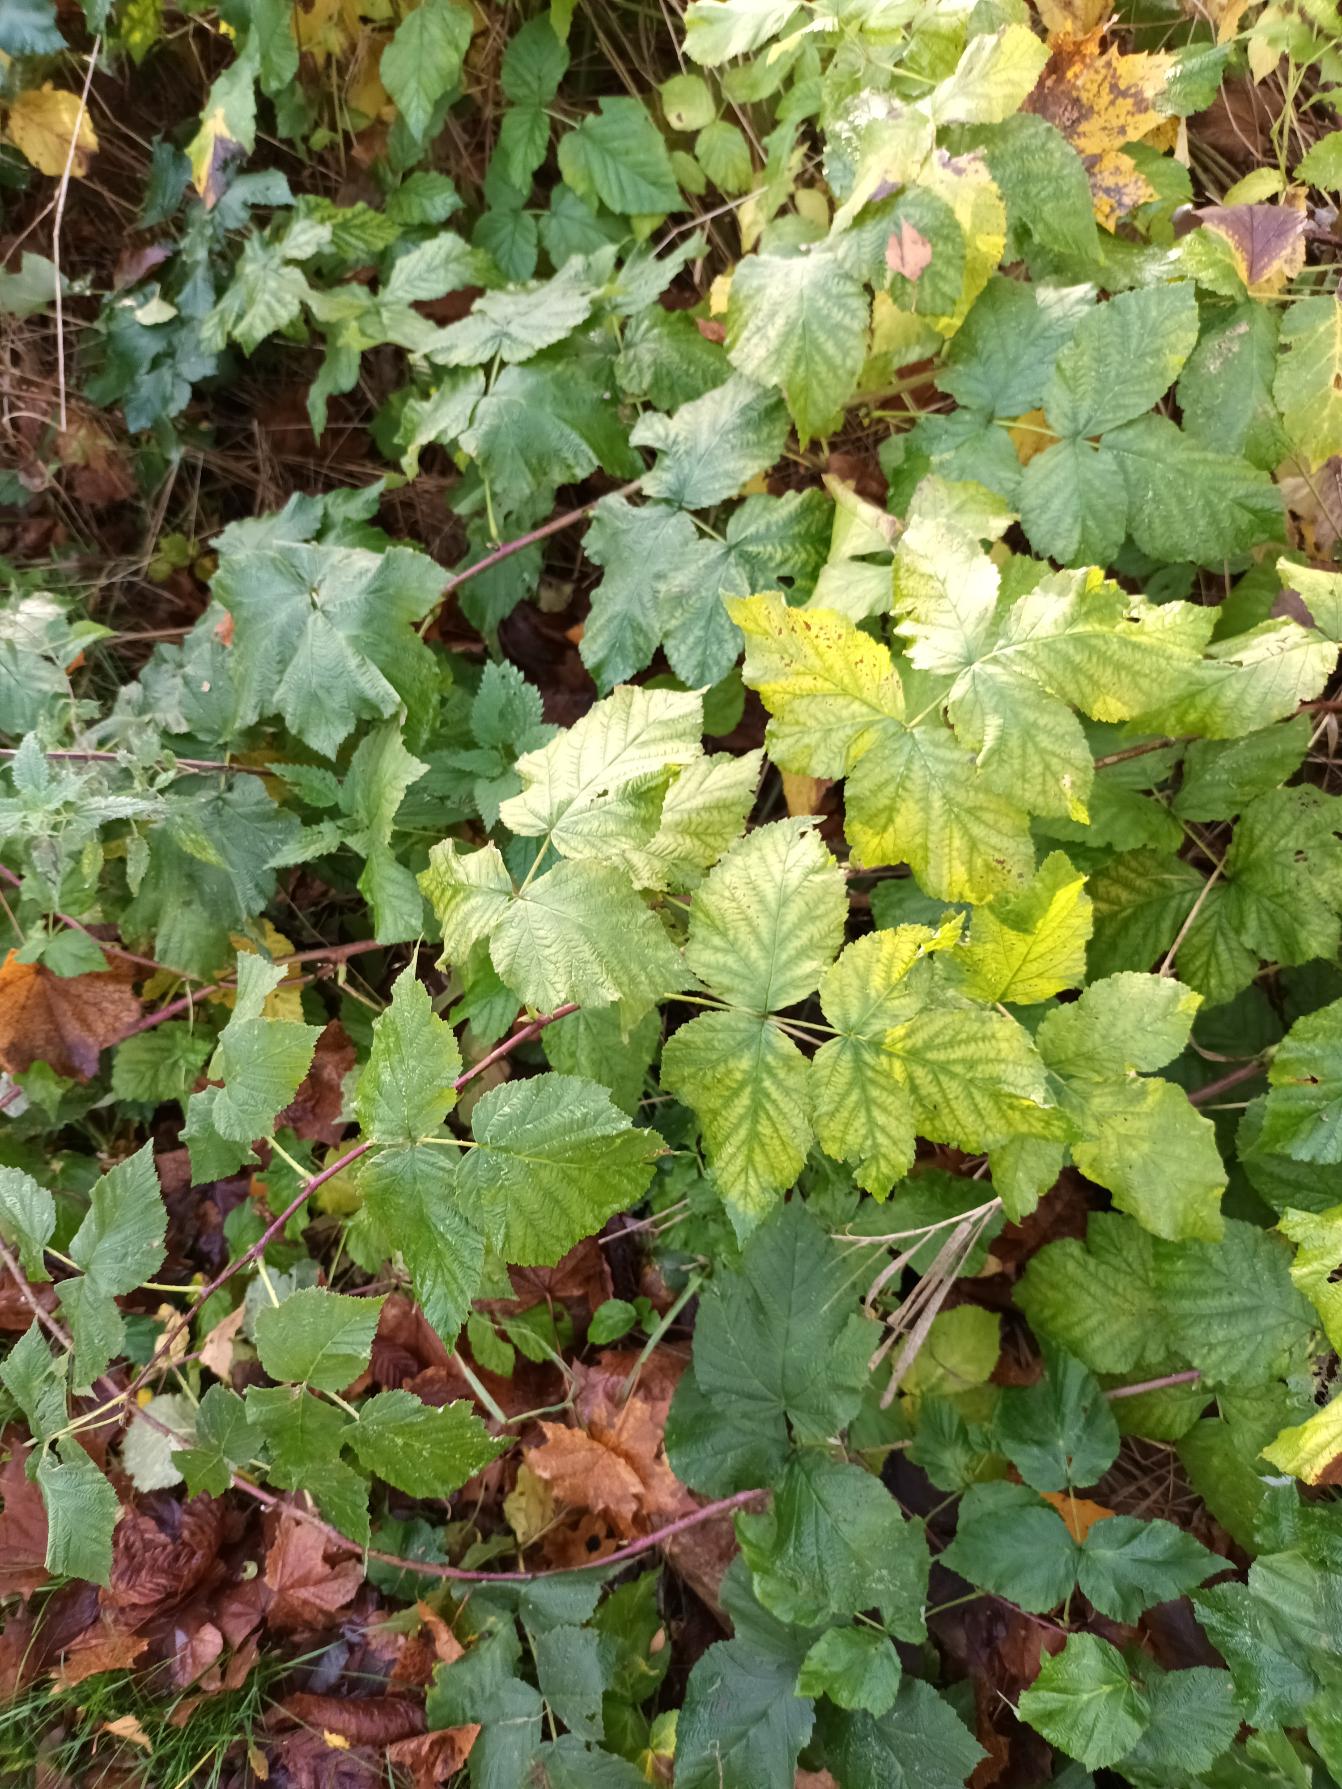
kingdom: Plantae
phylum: Tracheophyta
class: Magnoliopsida
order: Rosales
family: Rosaceae
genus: Rubus
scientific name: Rubus idaeus
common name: Hindbær
